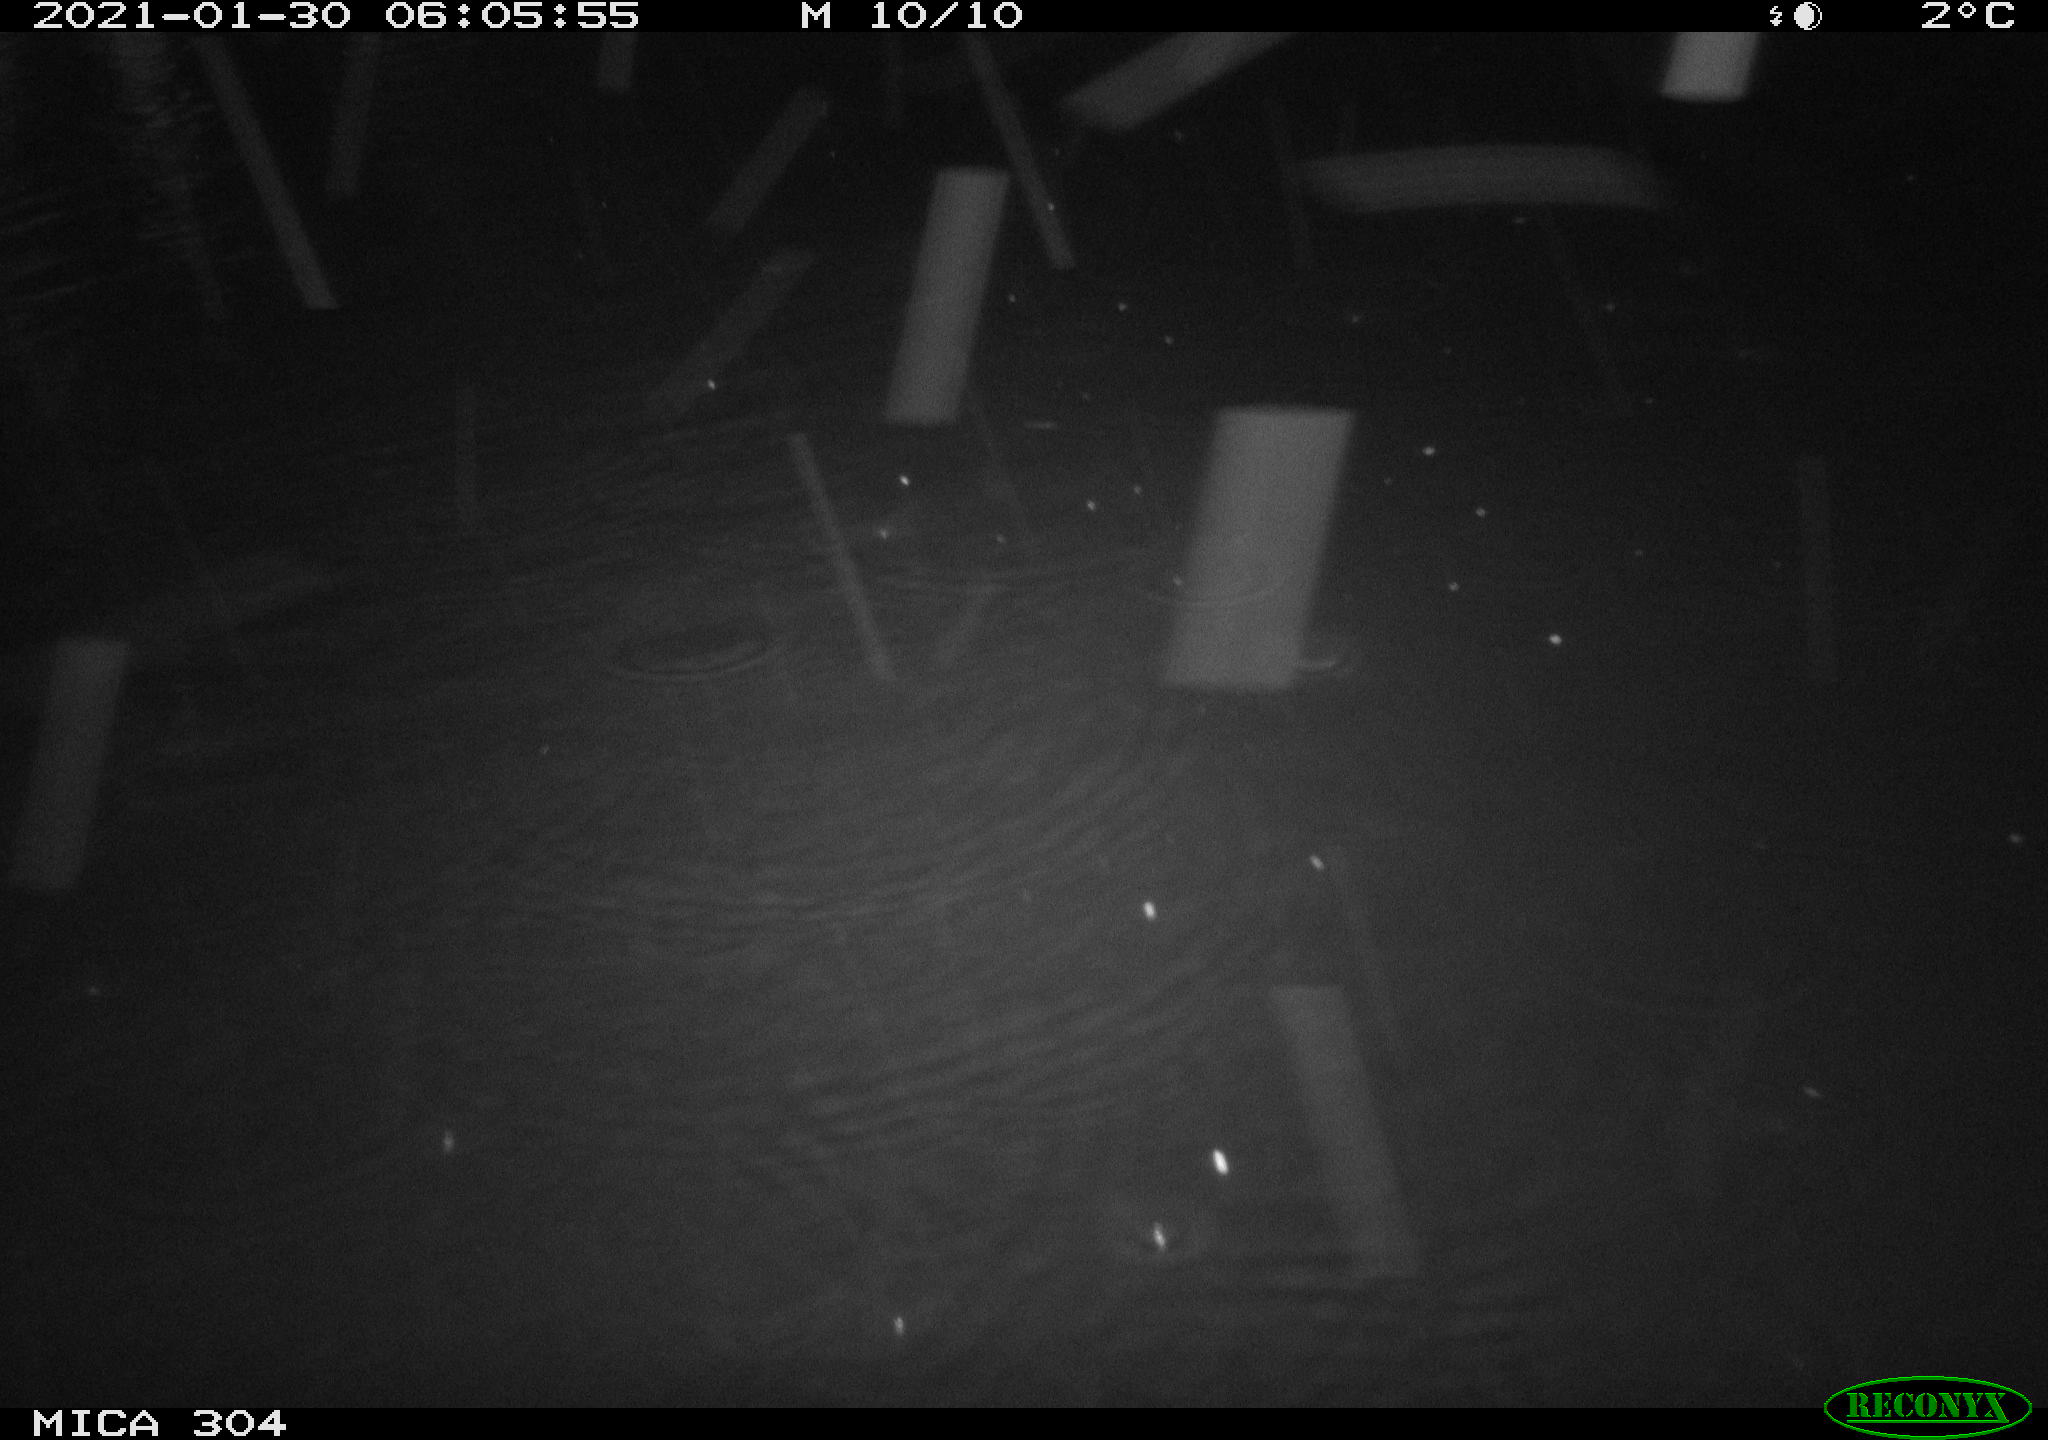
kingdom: Animalia
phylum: Chordata
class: Mammalia
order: Rodentia
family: Muridae
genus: Rattus
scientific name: Rattus norvegicus
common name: Brown rat
